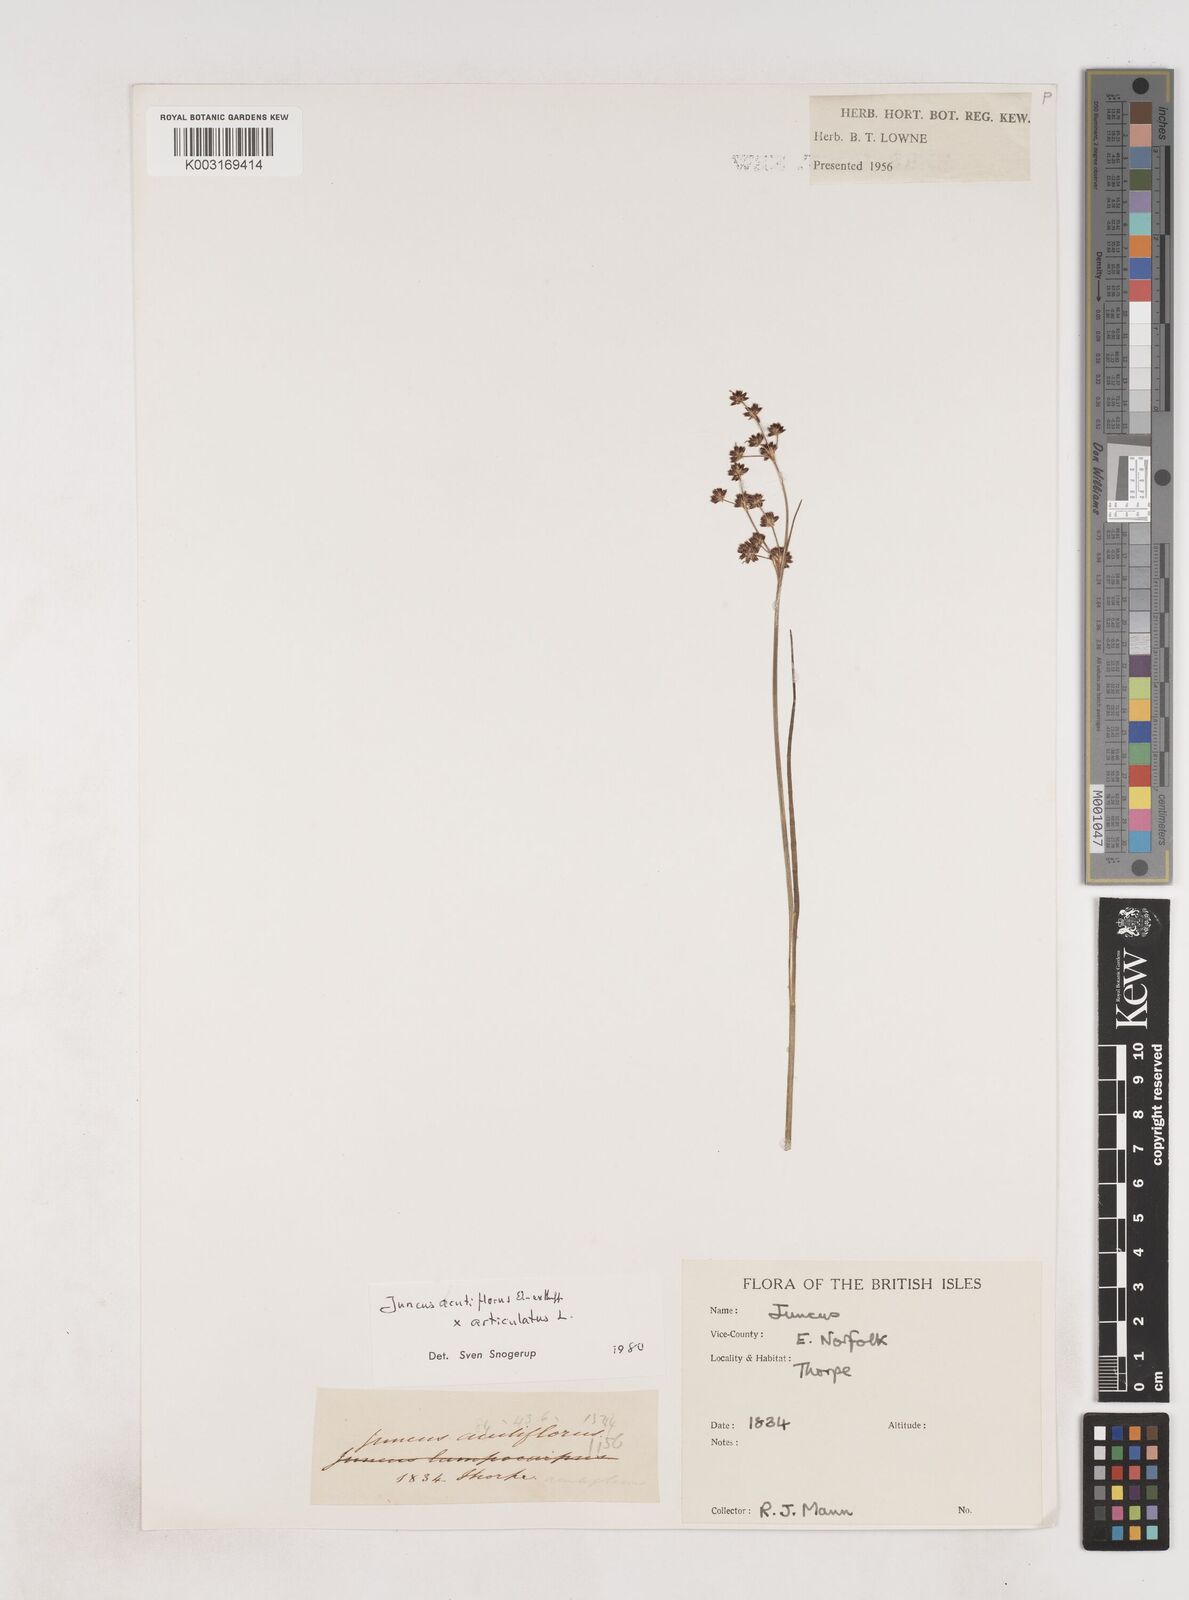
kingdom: Plantae
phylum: Tracheophyta
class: Liliopsida
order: Poales
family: Juncaceae
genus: Juncus
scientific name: Juncus acutiflorus
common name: Sharp-flowered rush
